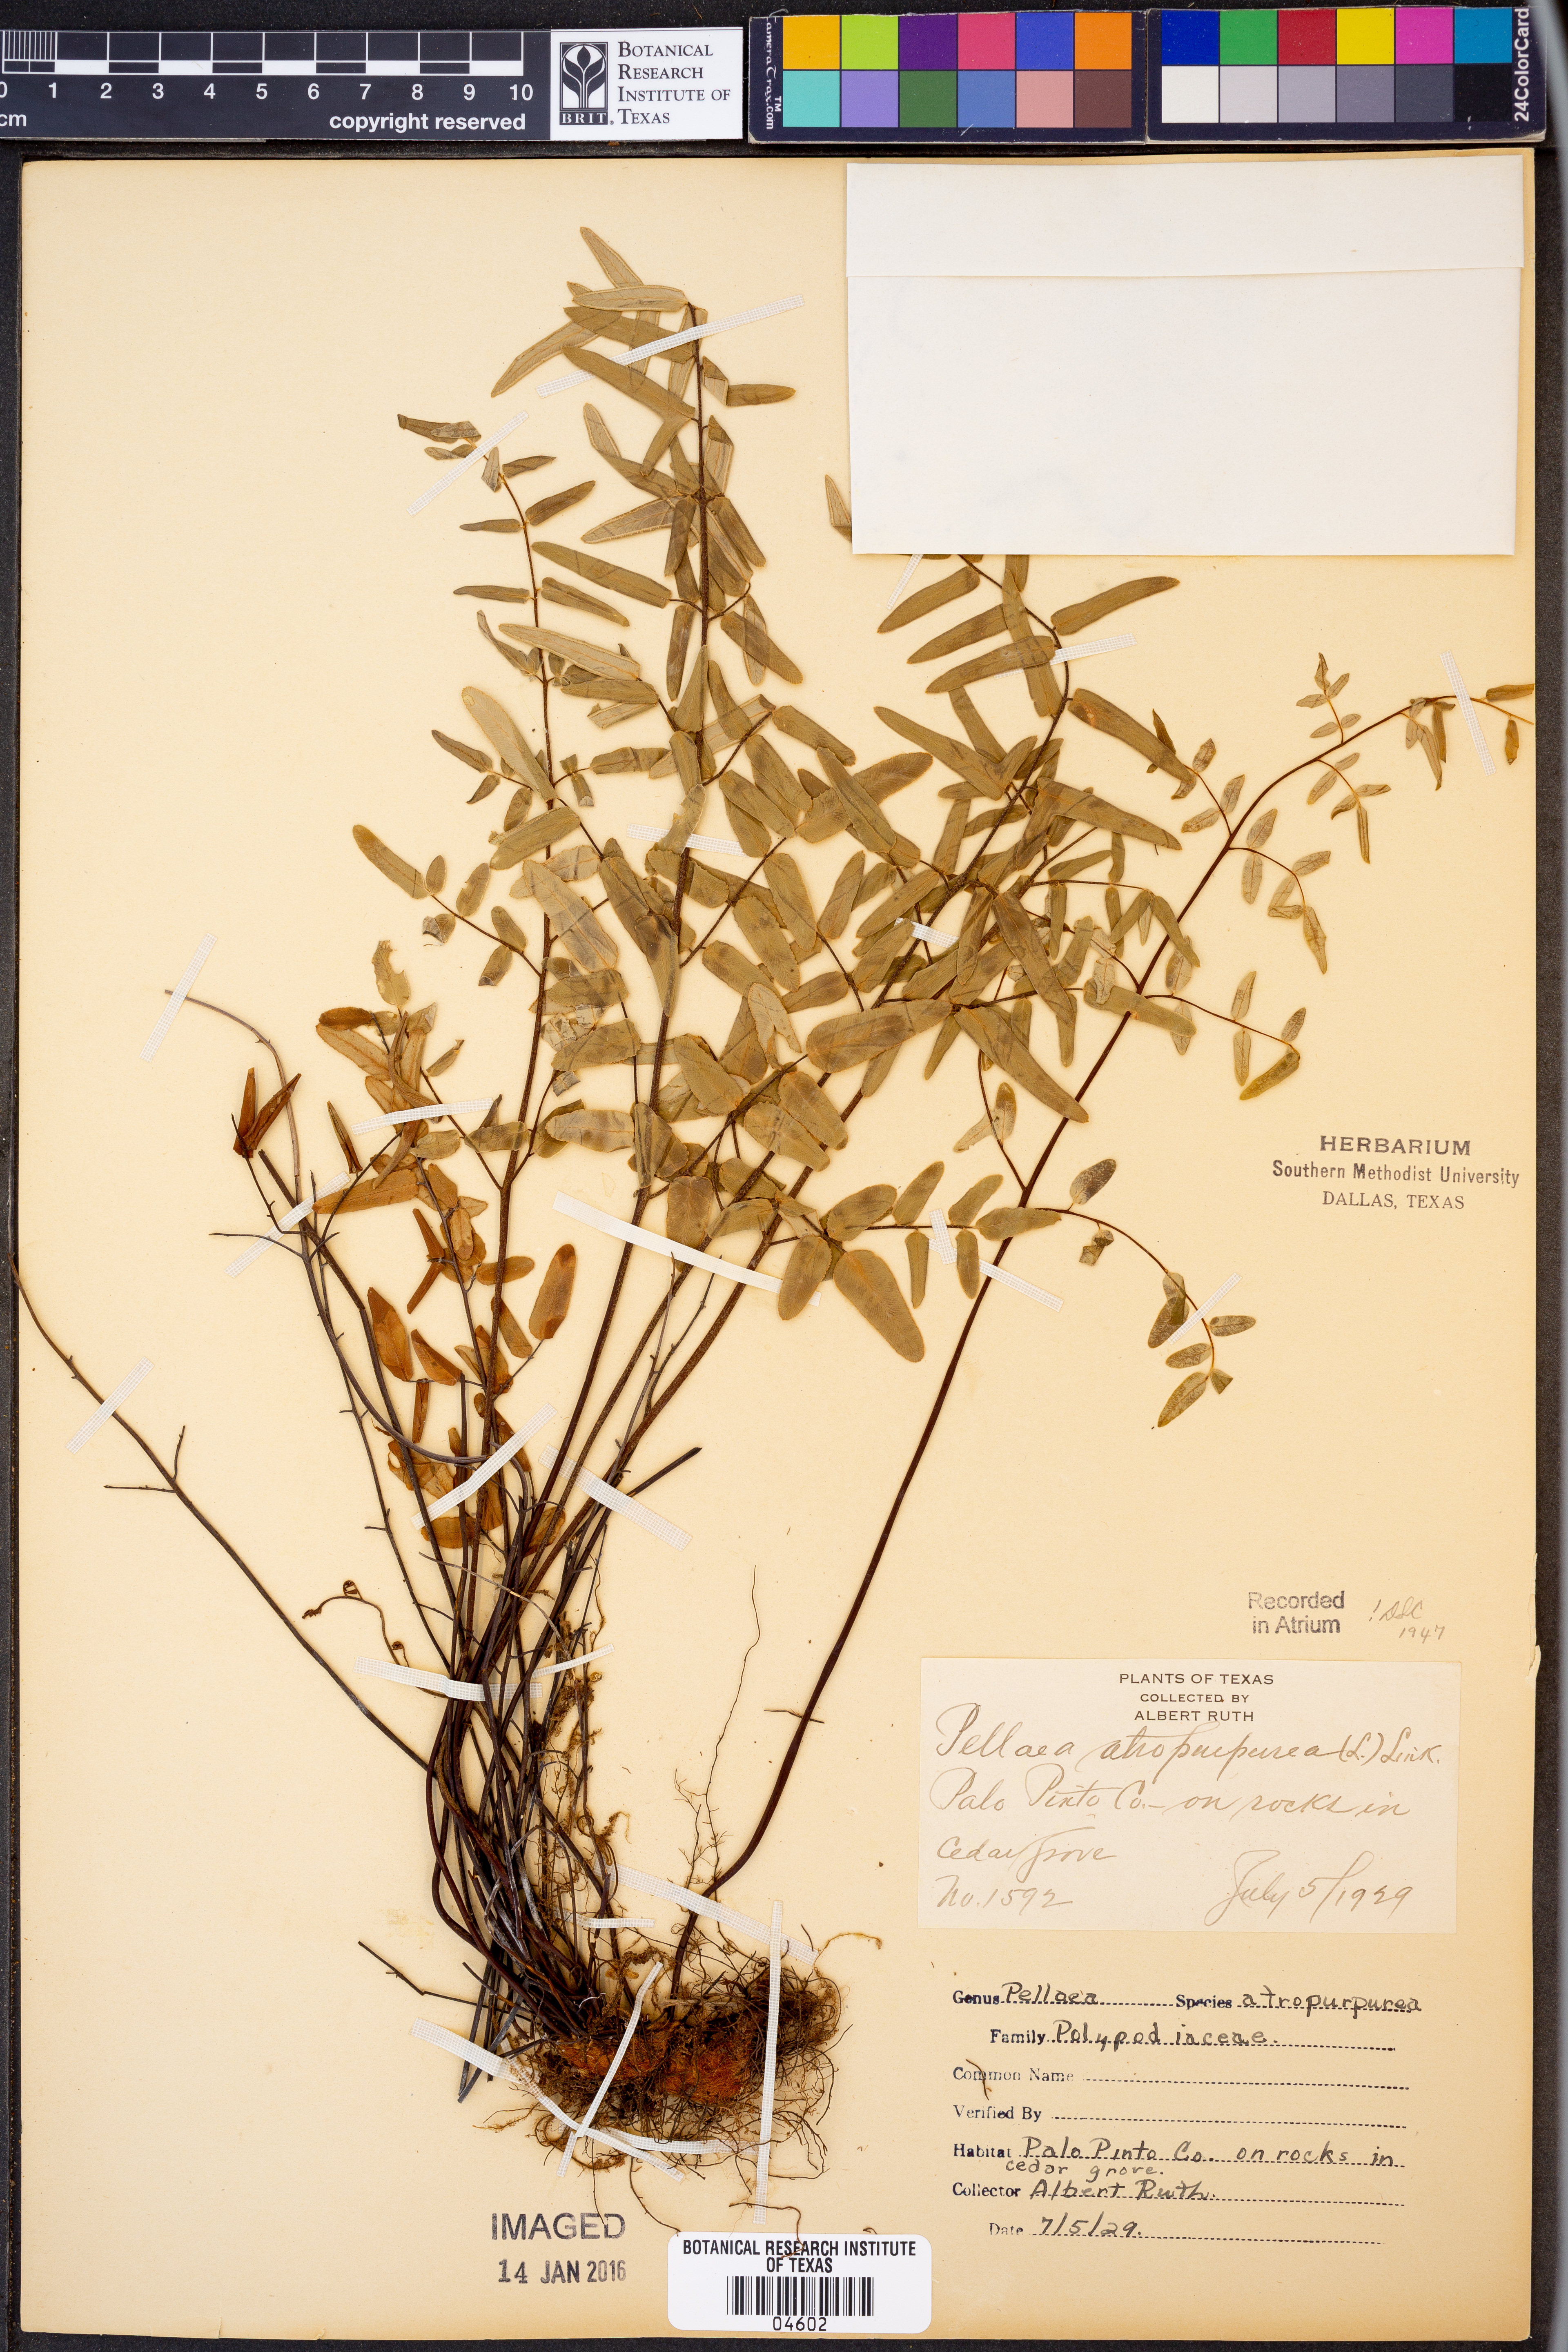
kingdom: Plantae
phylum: Tracheophyta
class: Polypodiopsida
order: Polypodiales
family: Pteridaceae
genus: Pellaea
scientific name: Pellaea atropurpurea
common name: Hairy cliffbrake
